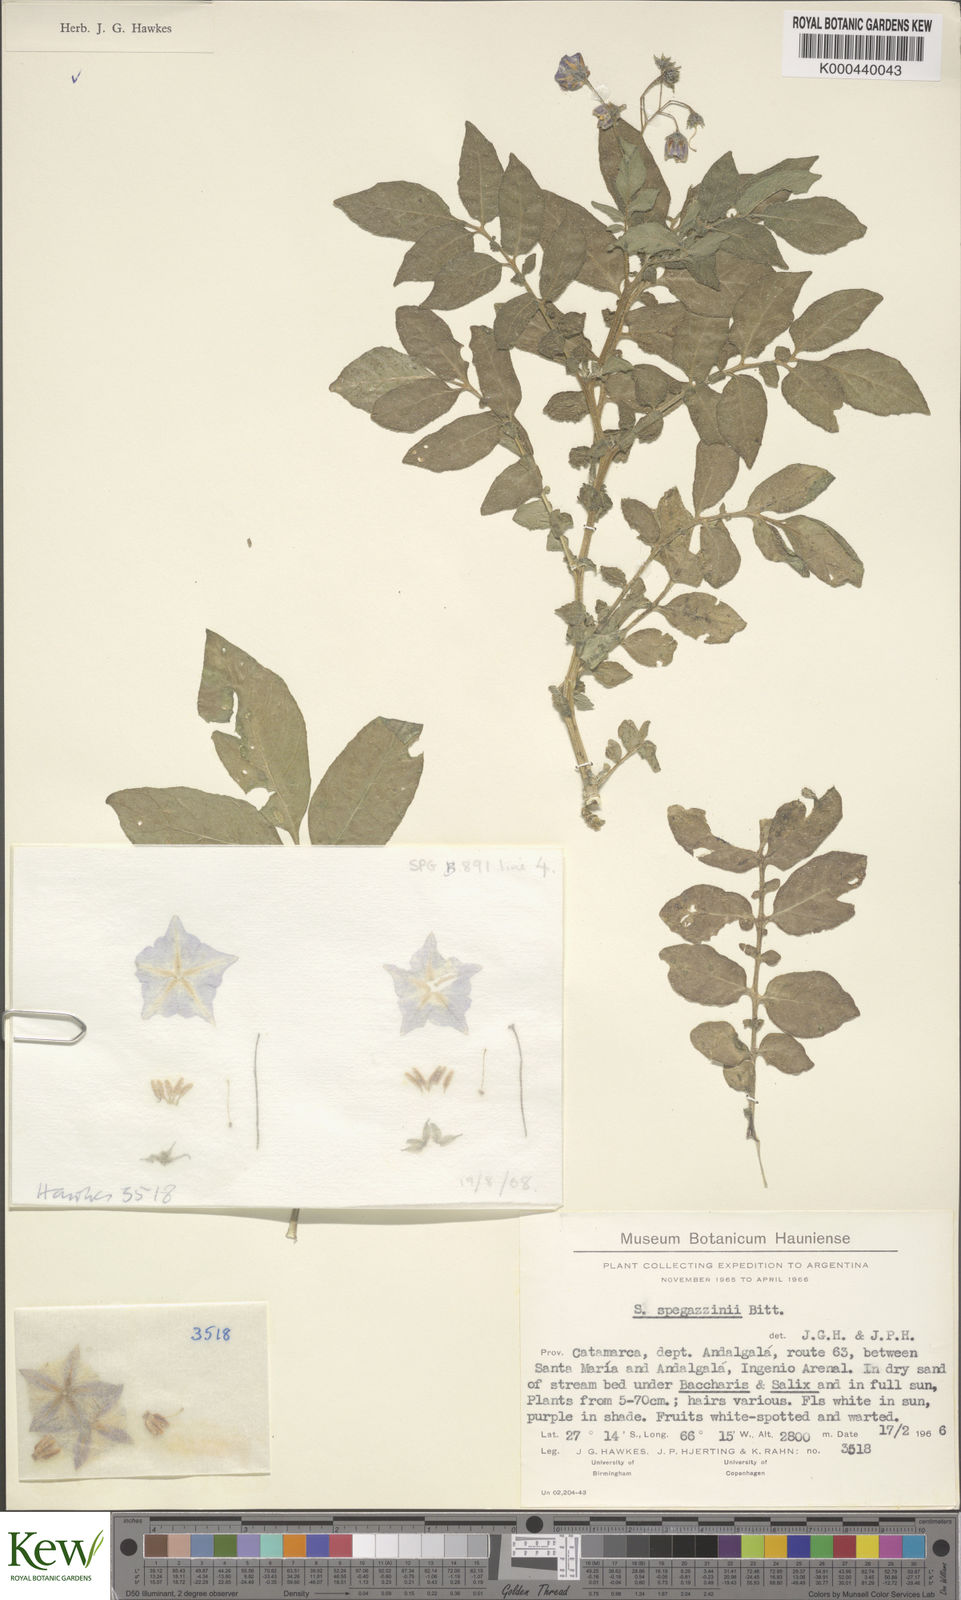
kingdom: Plantae
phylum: Tracheophyta
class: Magnoliopsida
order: Solanales
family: Solanaceae
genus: Solanum
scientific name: Solanum brevicaule
